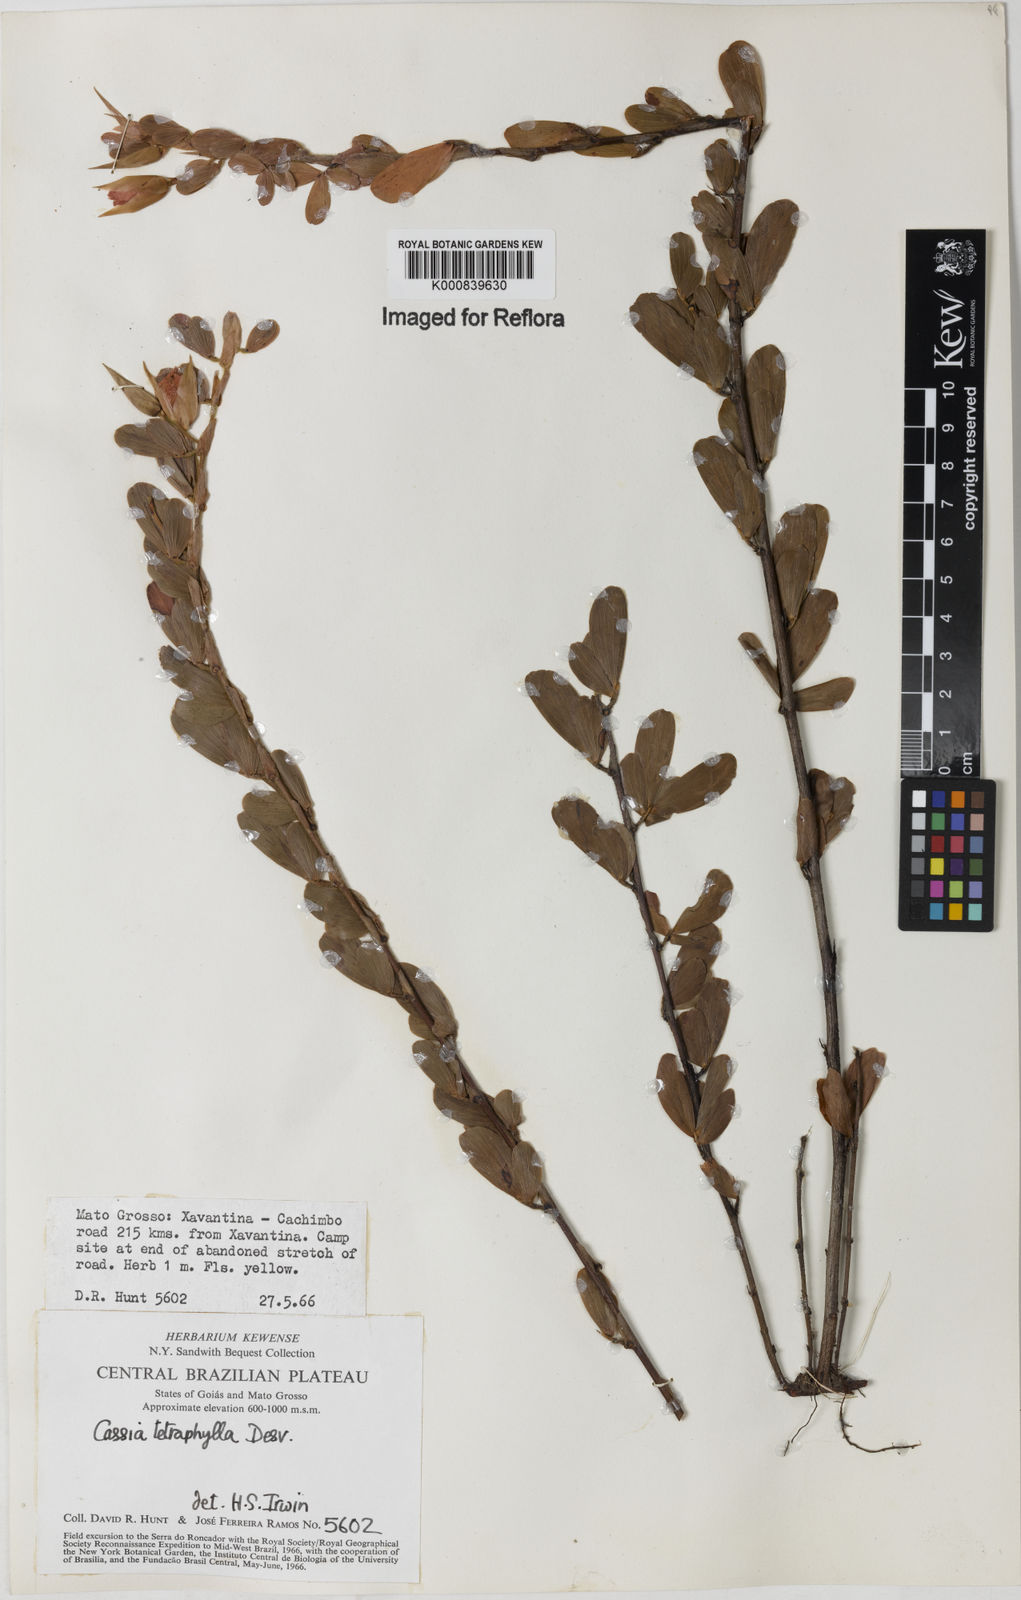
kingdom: Plantae
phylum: Tracheophyta
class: Magnoliopsida
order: Fabales
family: Fabaceae
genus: Chamaecrista
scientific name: Chamaecrista desvauxii
